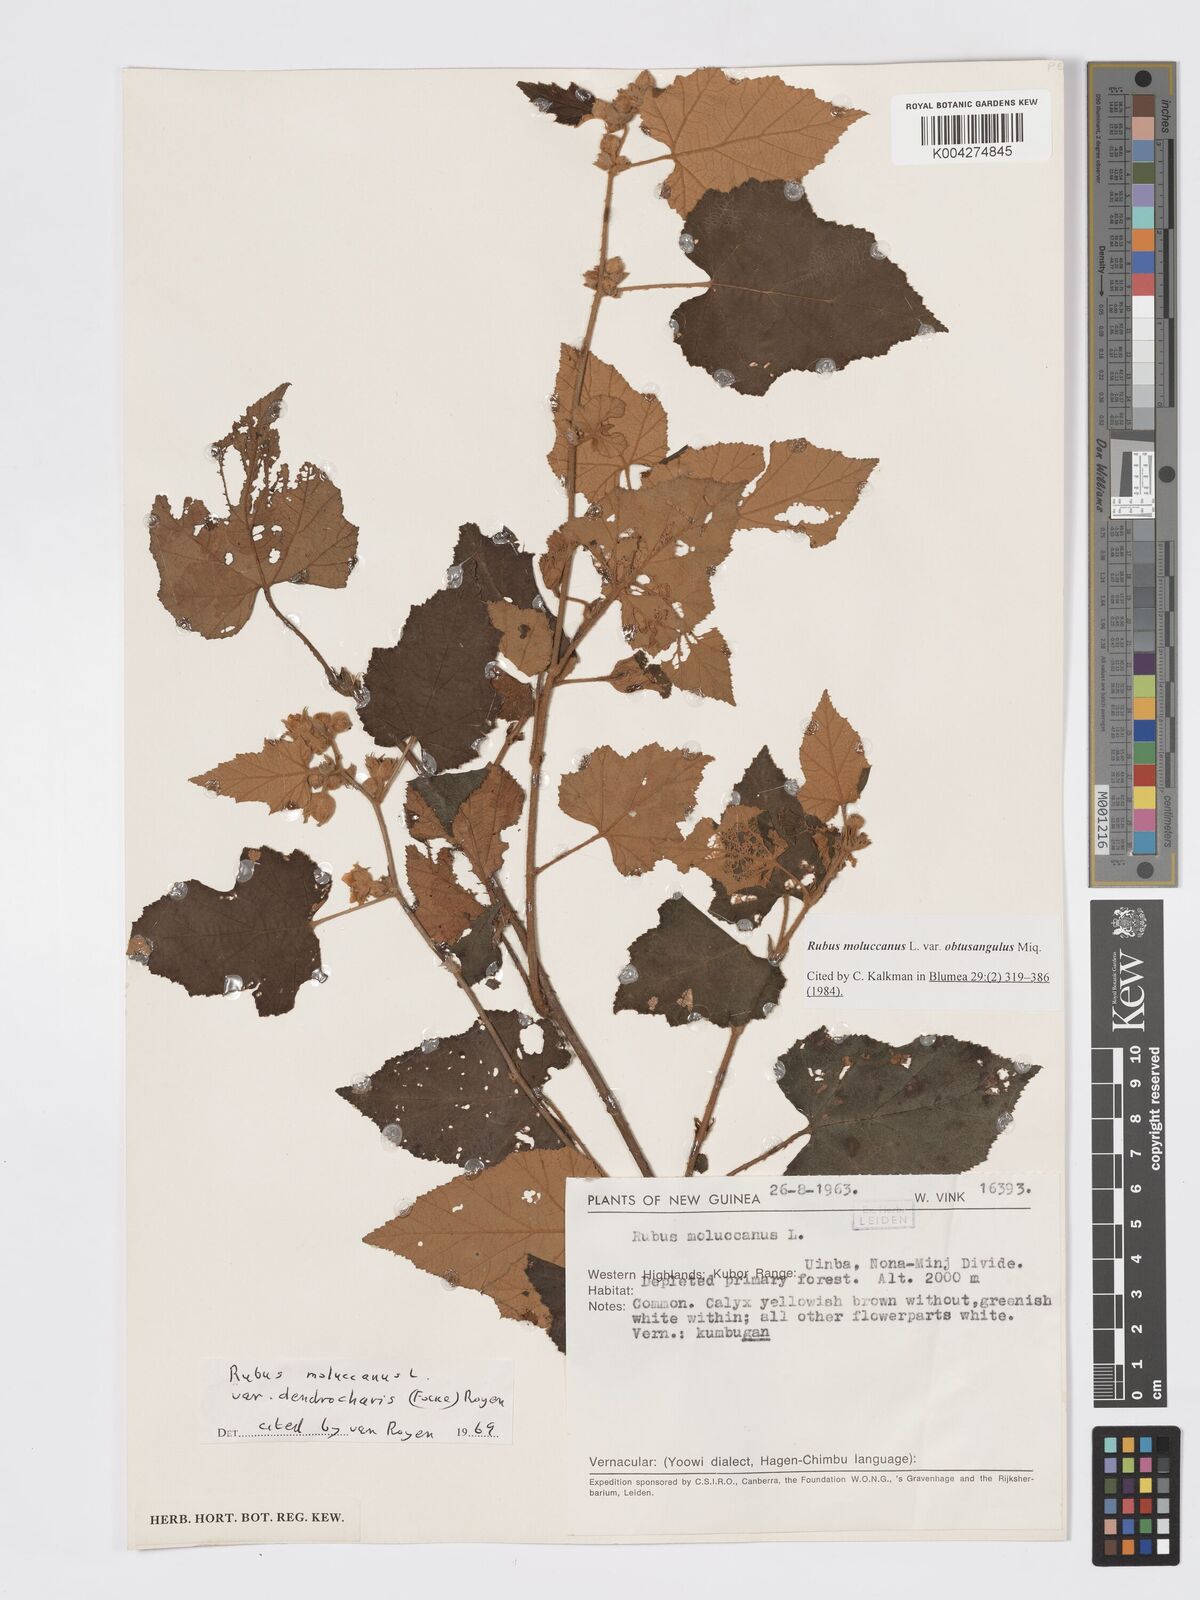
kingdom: Plantae
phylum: Tracheophyta
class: Magnoliopsida
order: Rosales
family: Rosaceae
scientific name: Rosaceae
